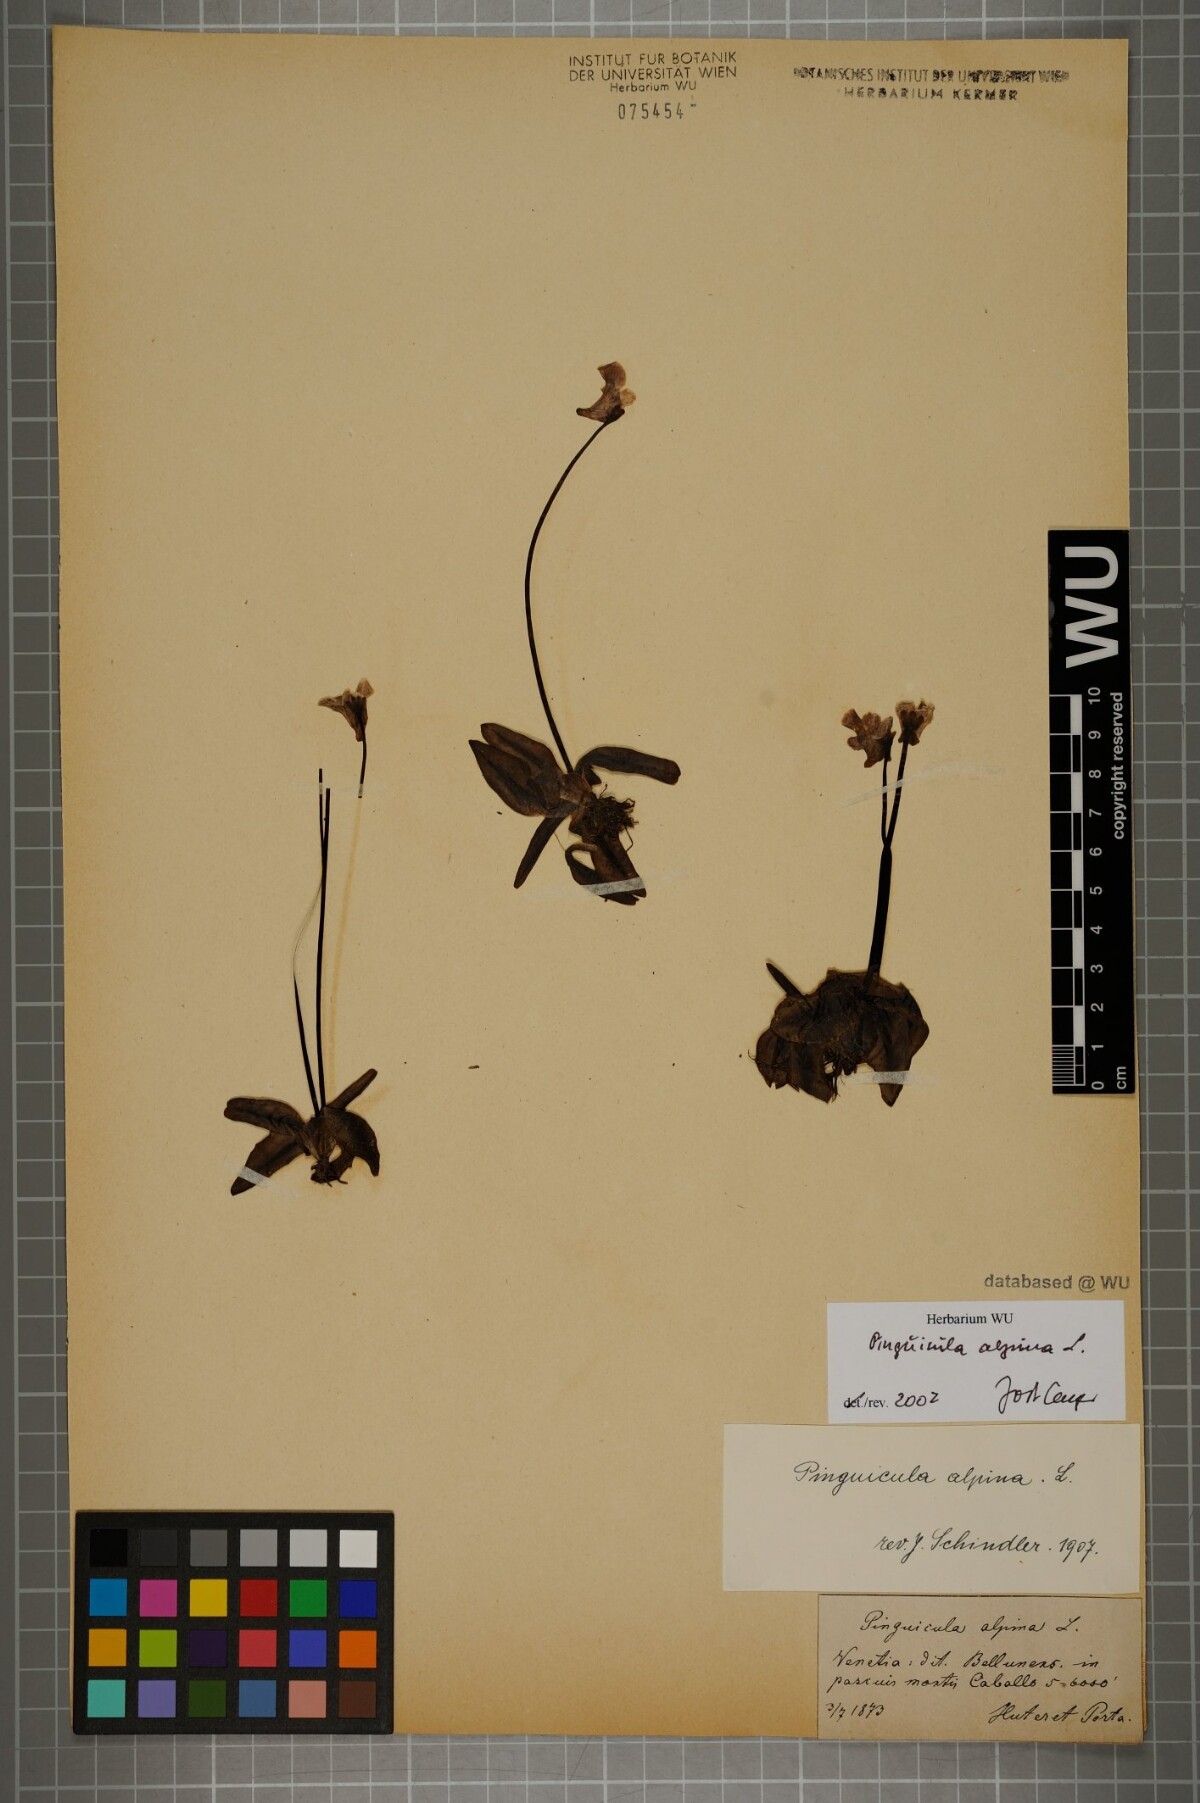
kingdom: Plantae
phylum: Tracheophyta
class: Magnoliopsida
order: Lamiales
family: Lentibulariaceae
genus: Pinguicula
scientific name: Pinguicula alpina
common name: Alpine butterwort
